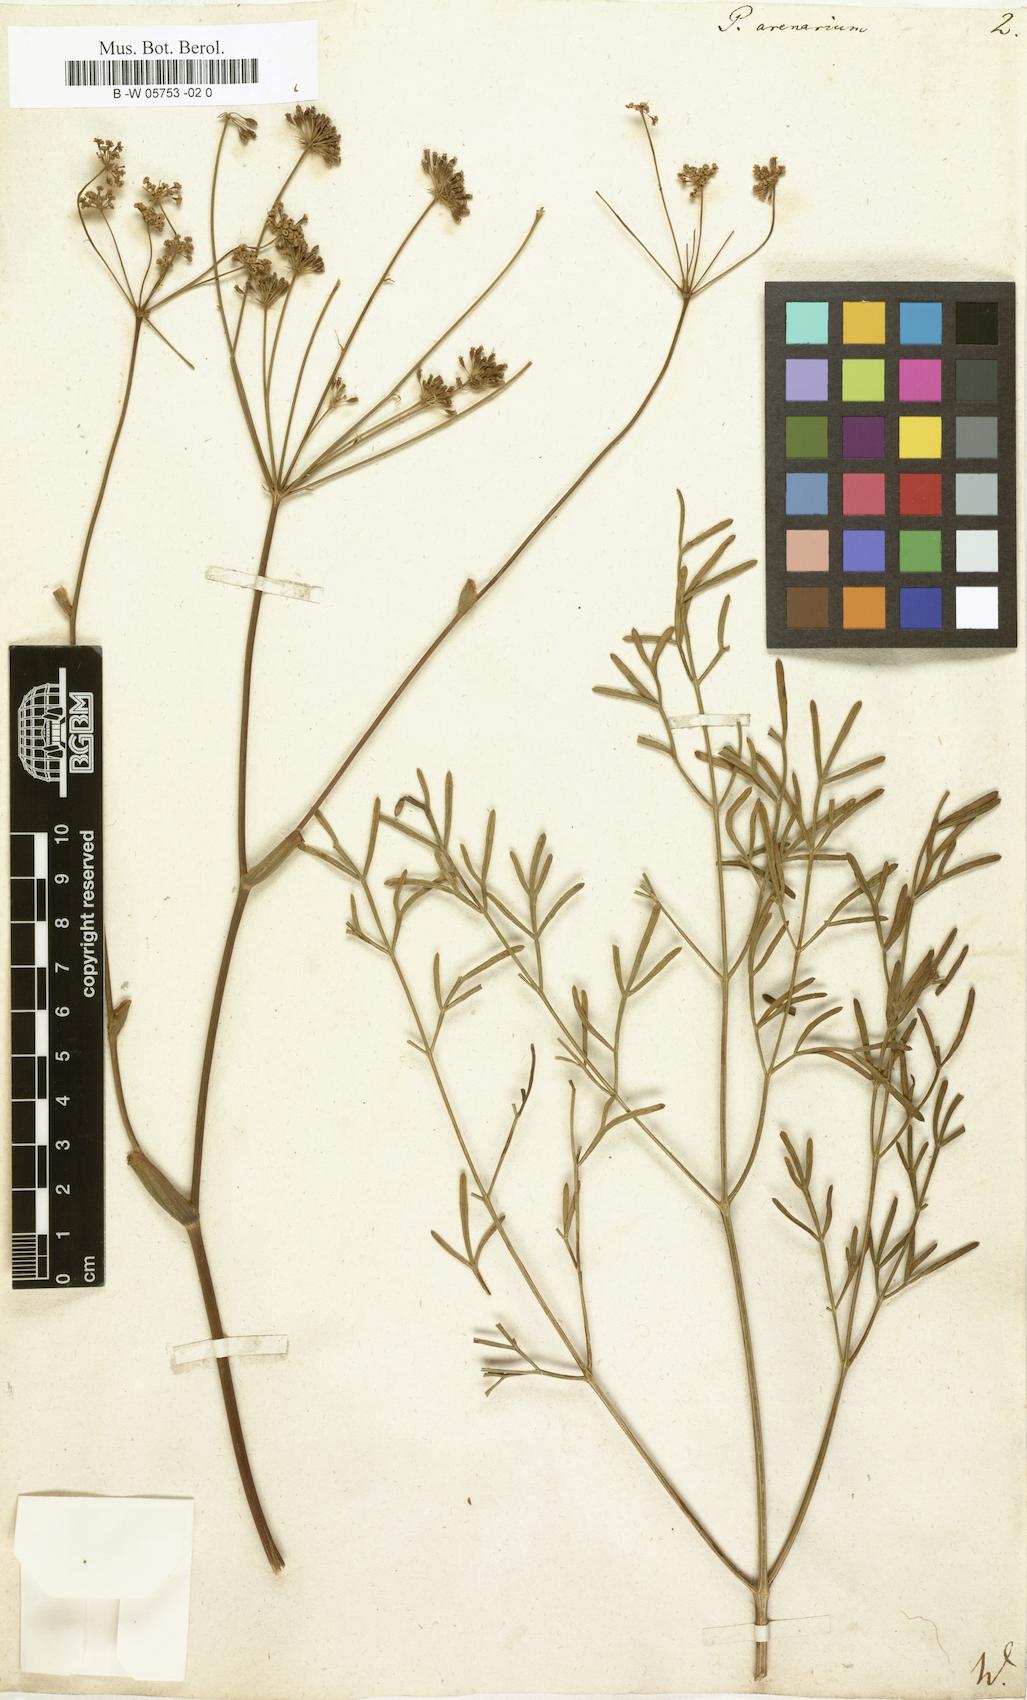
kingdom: Plantae
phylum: Tracheophyta
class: Magnoliopsida
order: Apiales
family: Apiaceae
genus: Taeniopetalum
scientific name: Taeniopetalum arenarium
